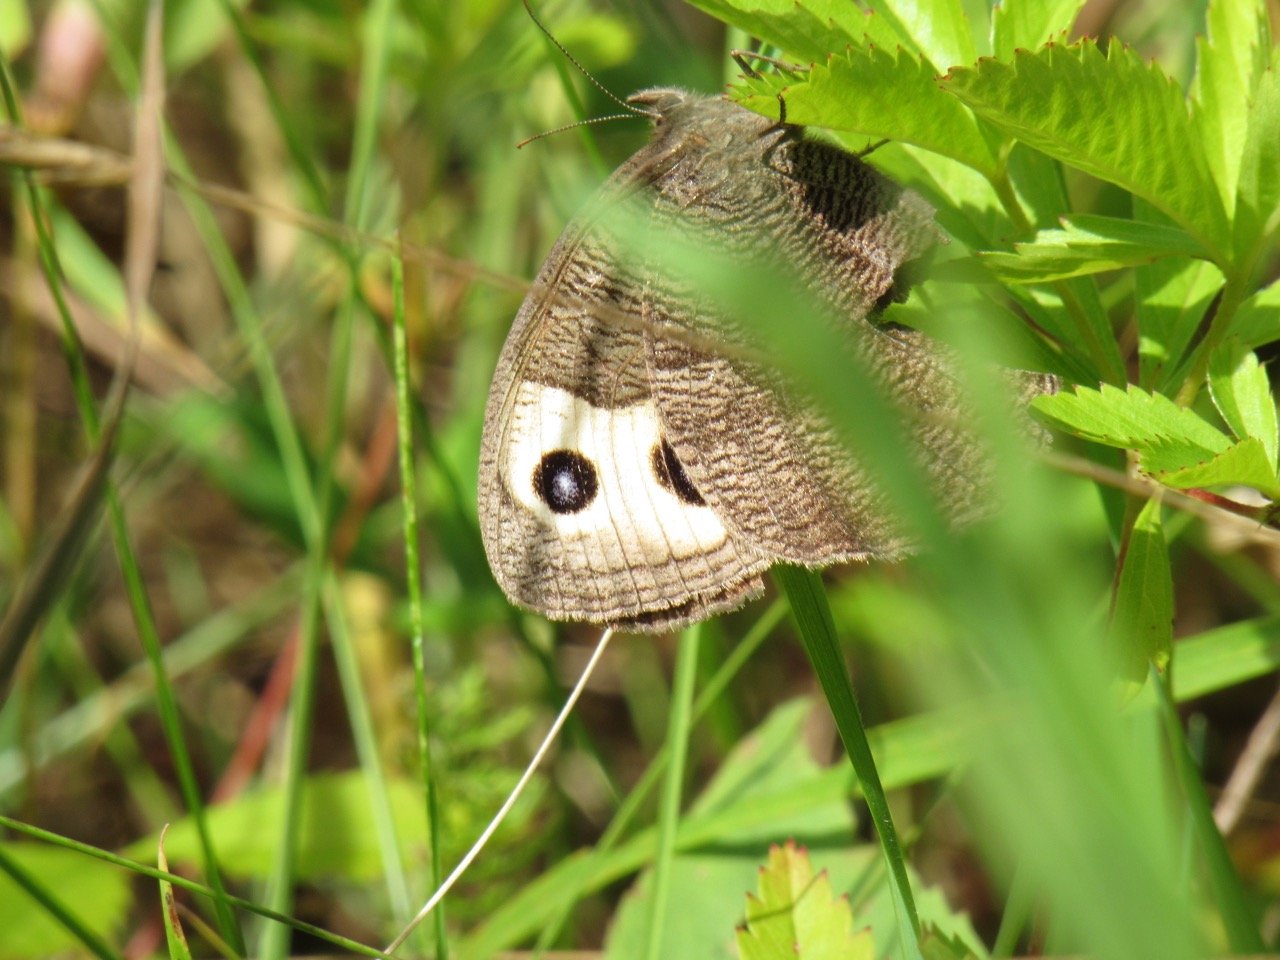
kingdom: Animalia
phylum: Arthropoda
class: Insecta
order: Lepidoptera
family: Nymphalidae
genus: Cercyonis
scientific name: Cercyonis pegala
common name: Common Wood-Nymph
